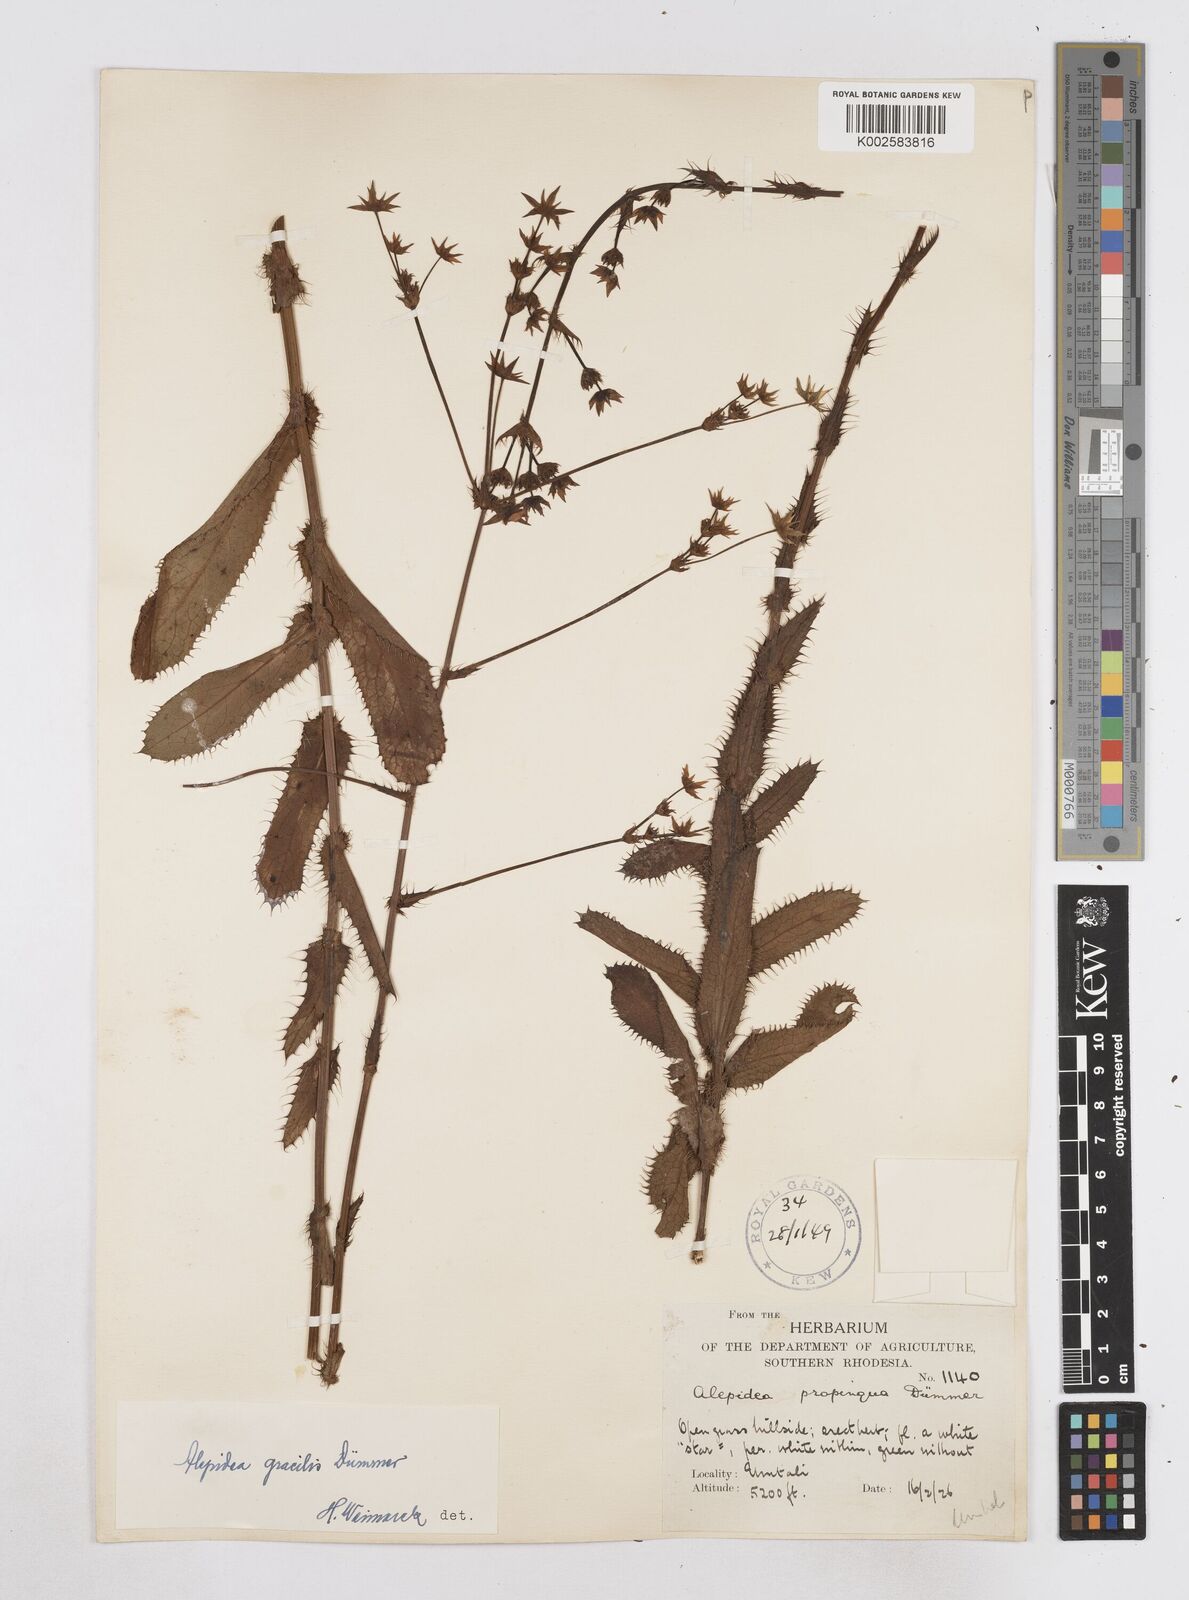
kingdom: Plantae
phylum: Tracheophyta
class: Magnoliopsida
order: Apiales
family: Apiaceae
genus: Alepidea
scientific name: Alepidea peduncularis
